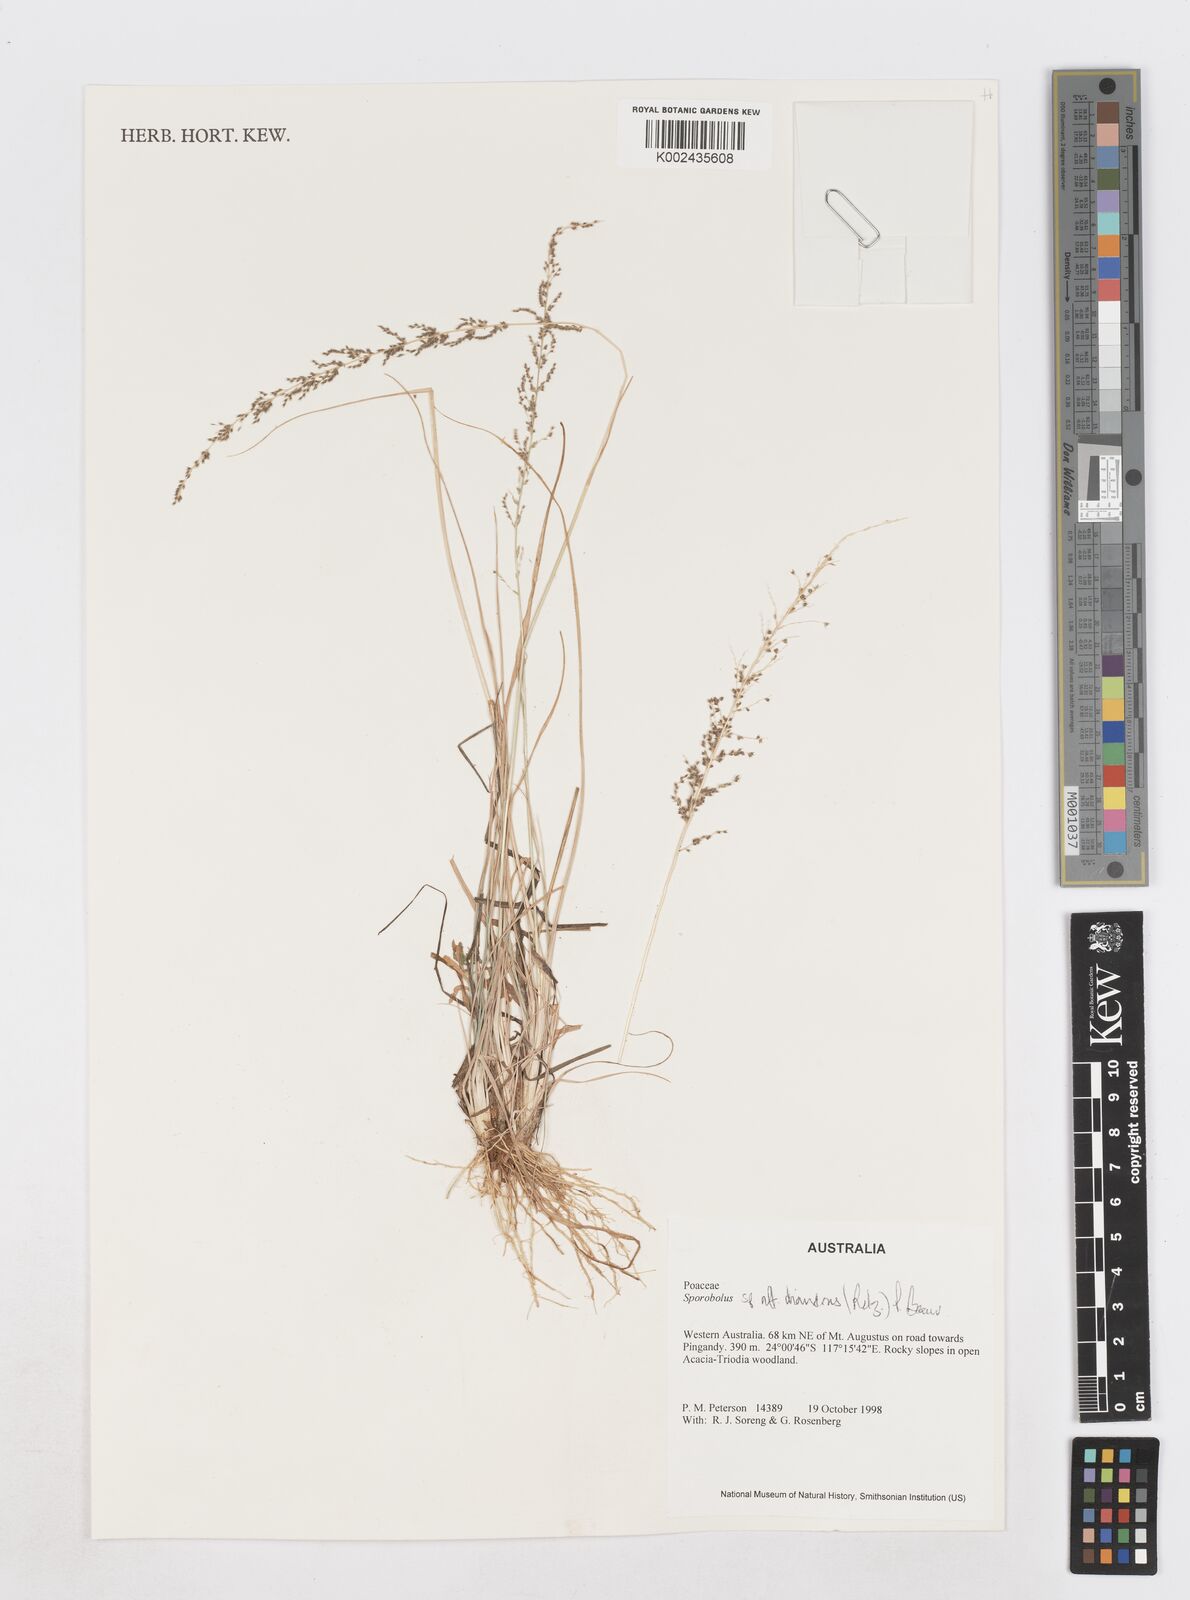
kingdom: Plantae
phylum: Tracheophyta
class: Liliopsida
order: Poales
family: Poaceae
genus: Sporobolus
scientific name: Sporobolus diandrus
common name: Tussock dropseed
